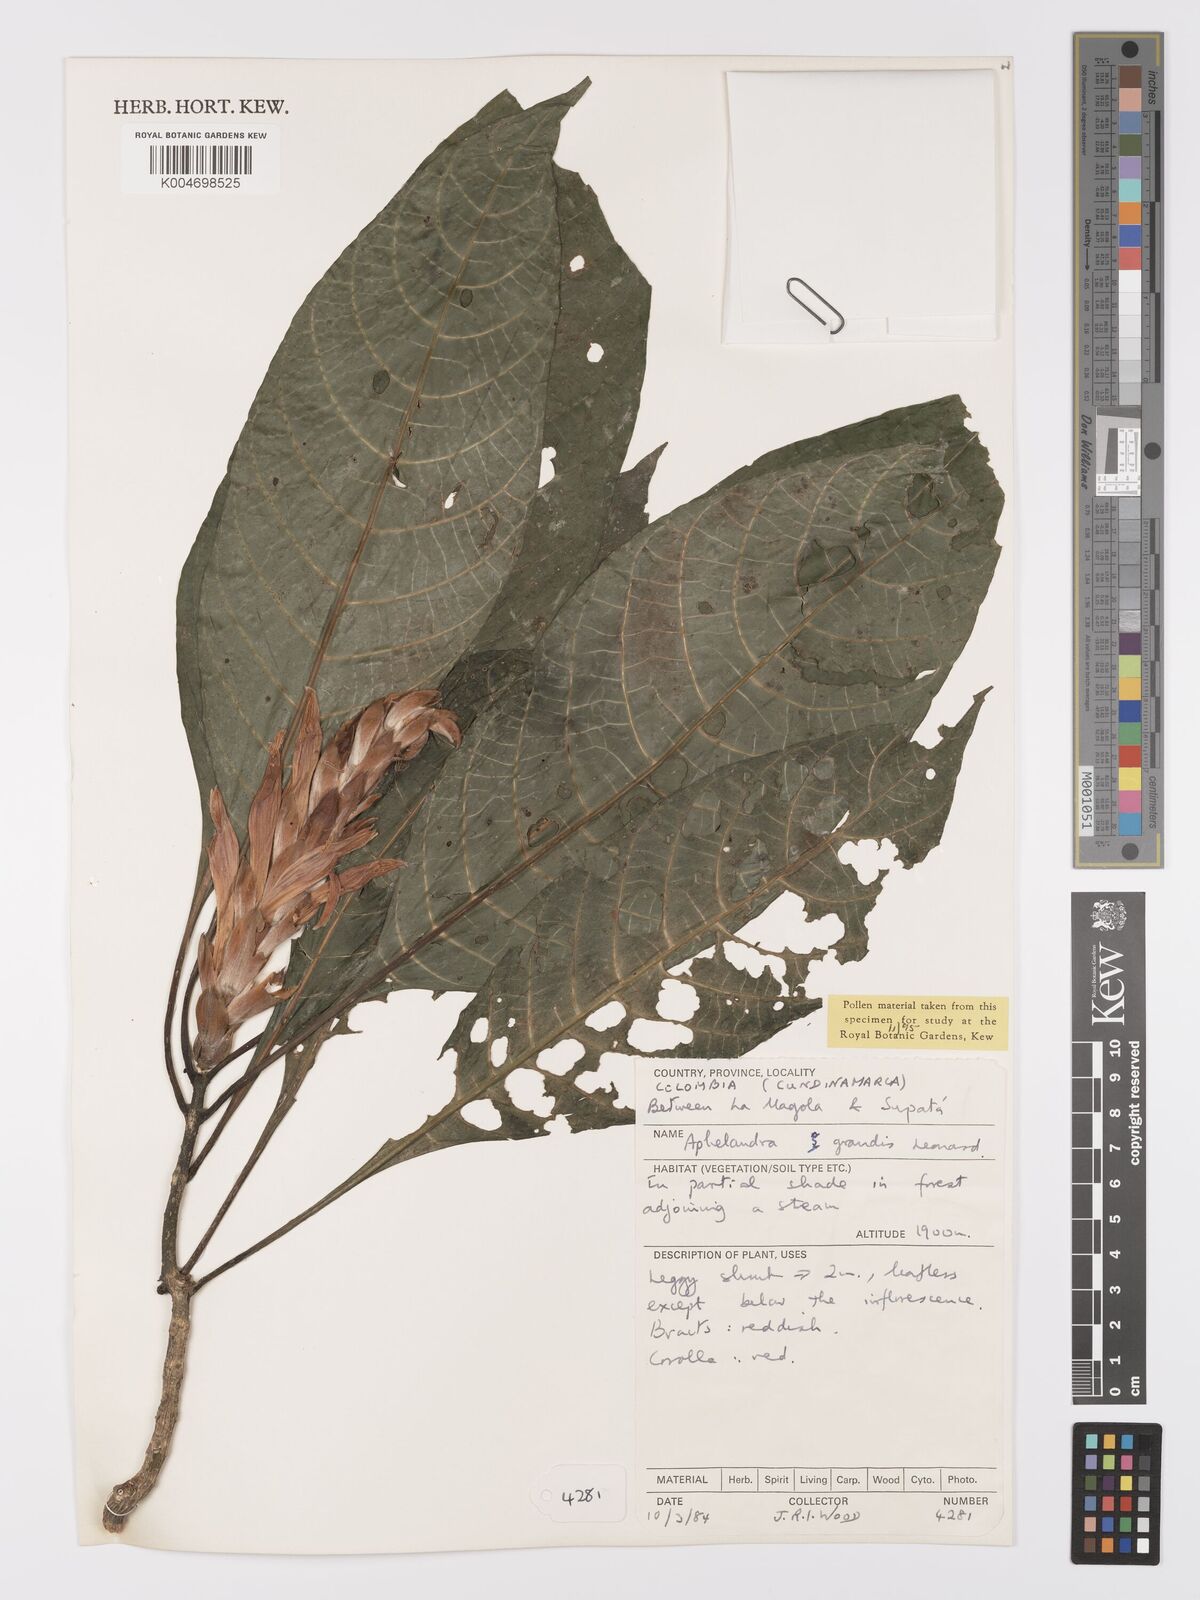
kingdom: Plantae
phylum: Tracheophyta
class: Magnoliopsida
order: Lamiales
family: Acanthaceae
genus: Aphelandra
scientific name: Aphelandra grandis
